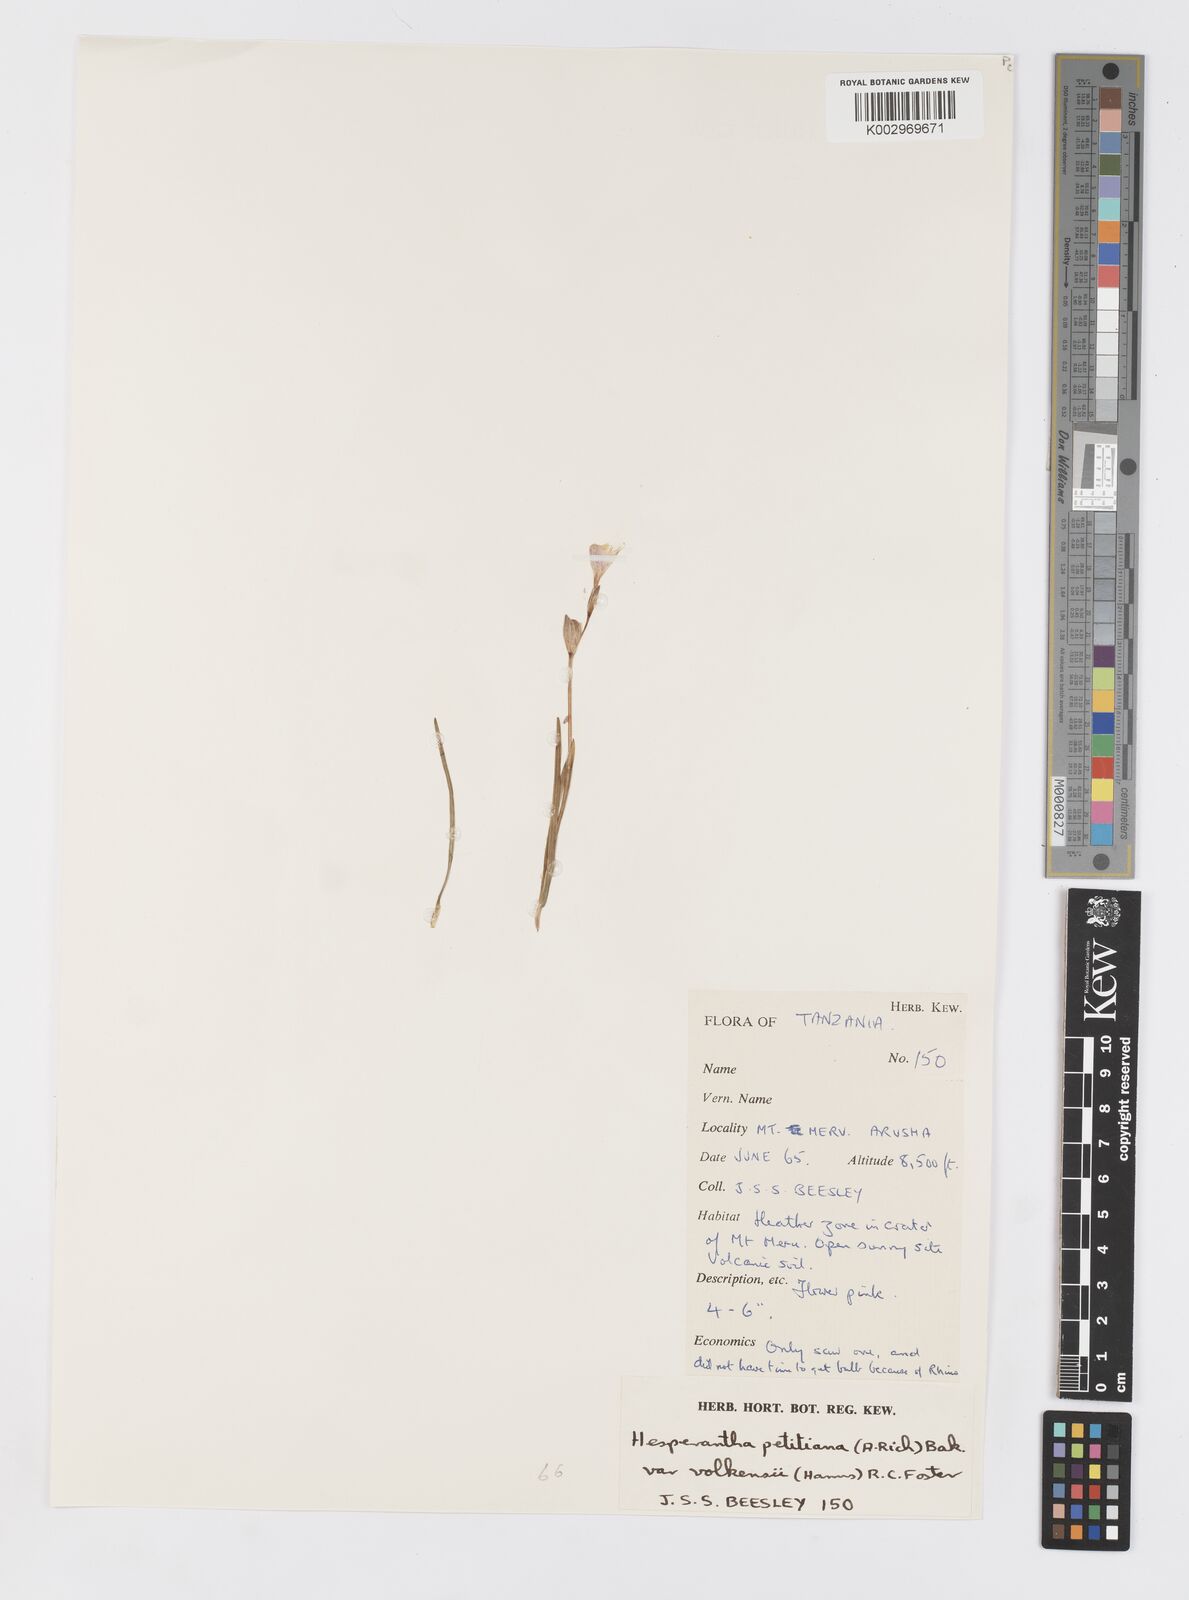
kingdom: Plantae
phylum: Tracheophyta
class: Liliopsida
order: Asparagales
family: Iridaceae
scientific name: Iridaceae
